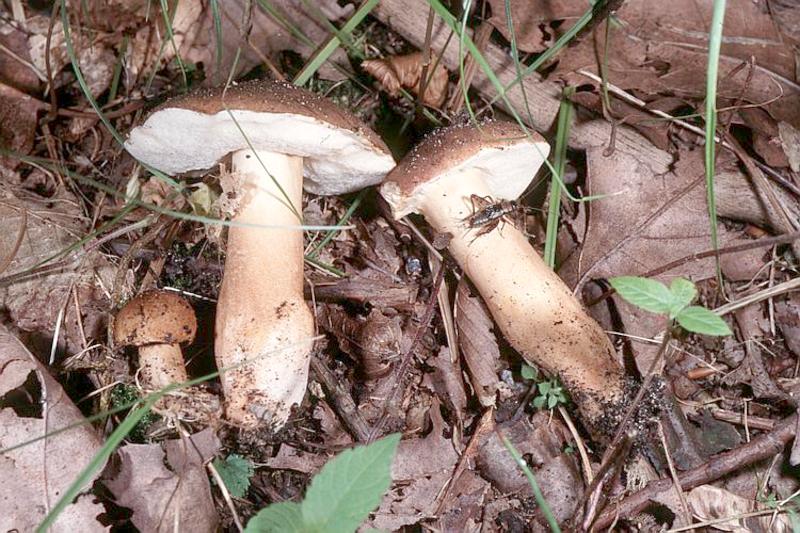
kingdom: Fungi
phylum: Basidiomycota
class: Agaricomycetes
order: Boletales
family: Gyroporaceae
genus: Gyroporus
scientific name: Gyroporus castaneus
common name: Chestnut bolete
